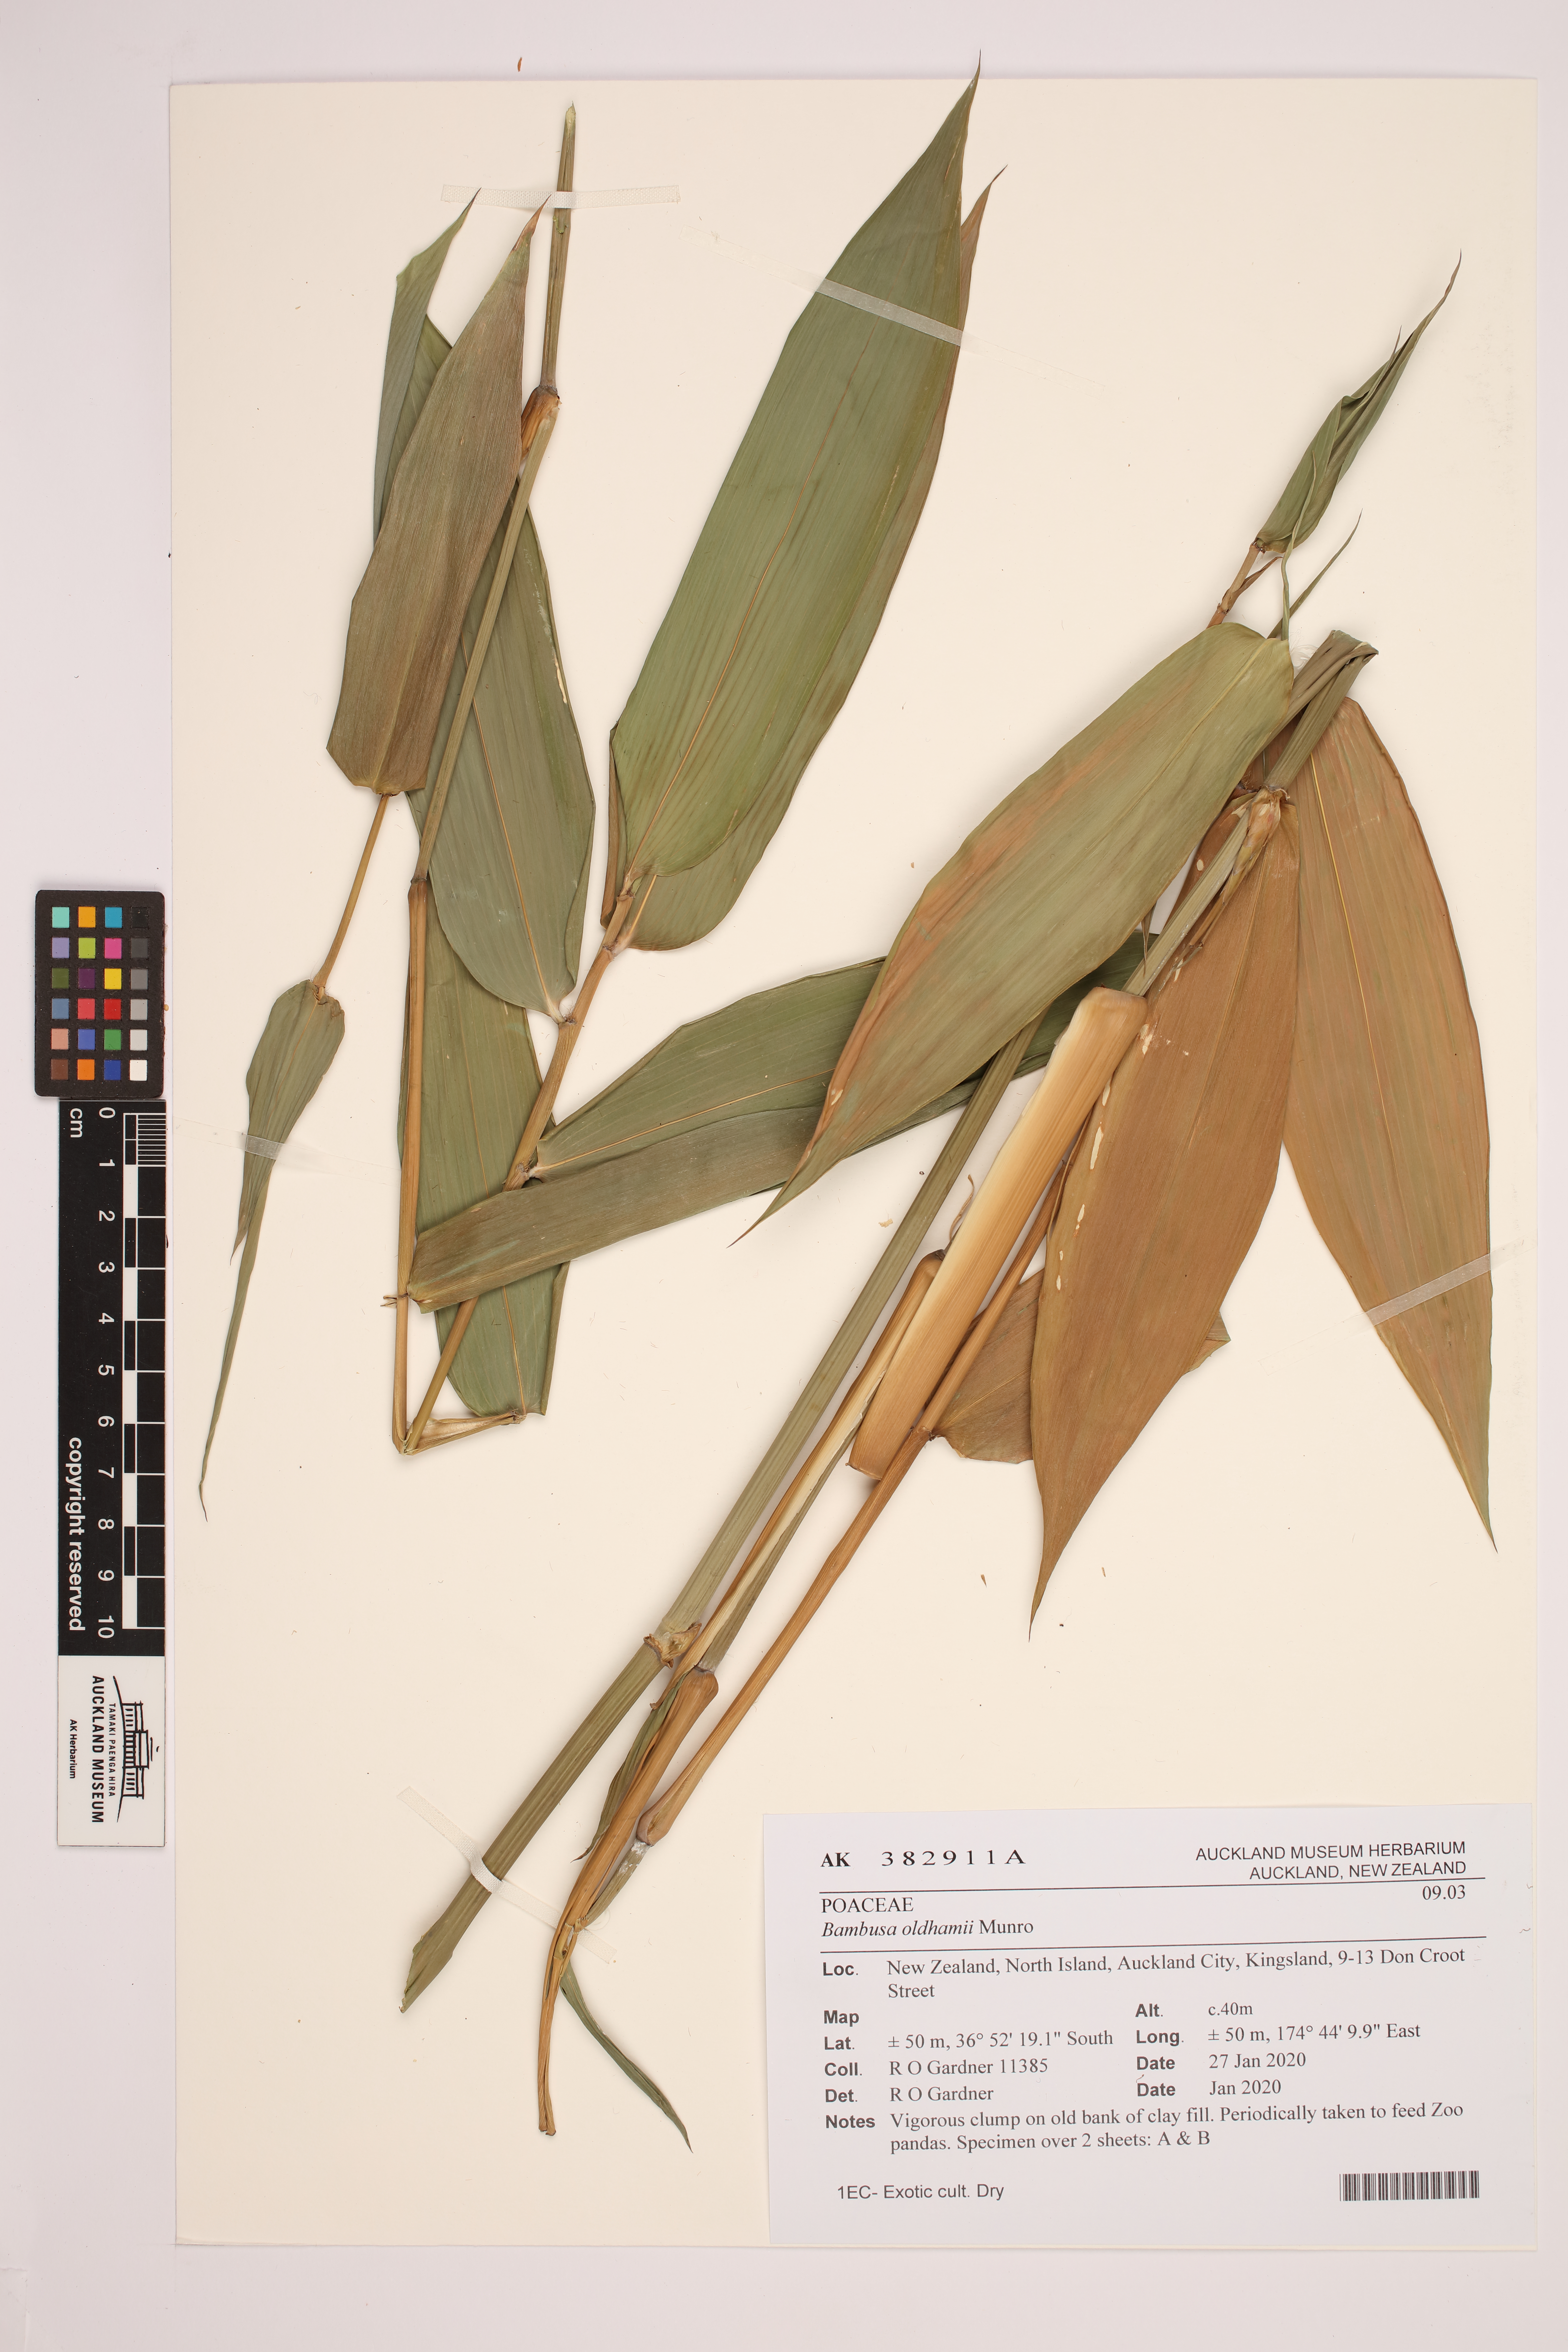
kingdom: Plantae
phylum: Tracheophyta
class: Liliopsida
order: Poales
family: Poaceae
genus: Bambusa
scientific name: Bambusa oldhamii
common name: Giant timber bamboo
